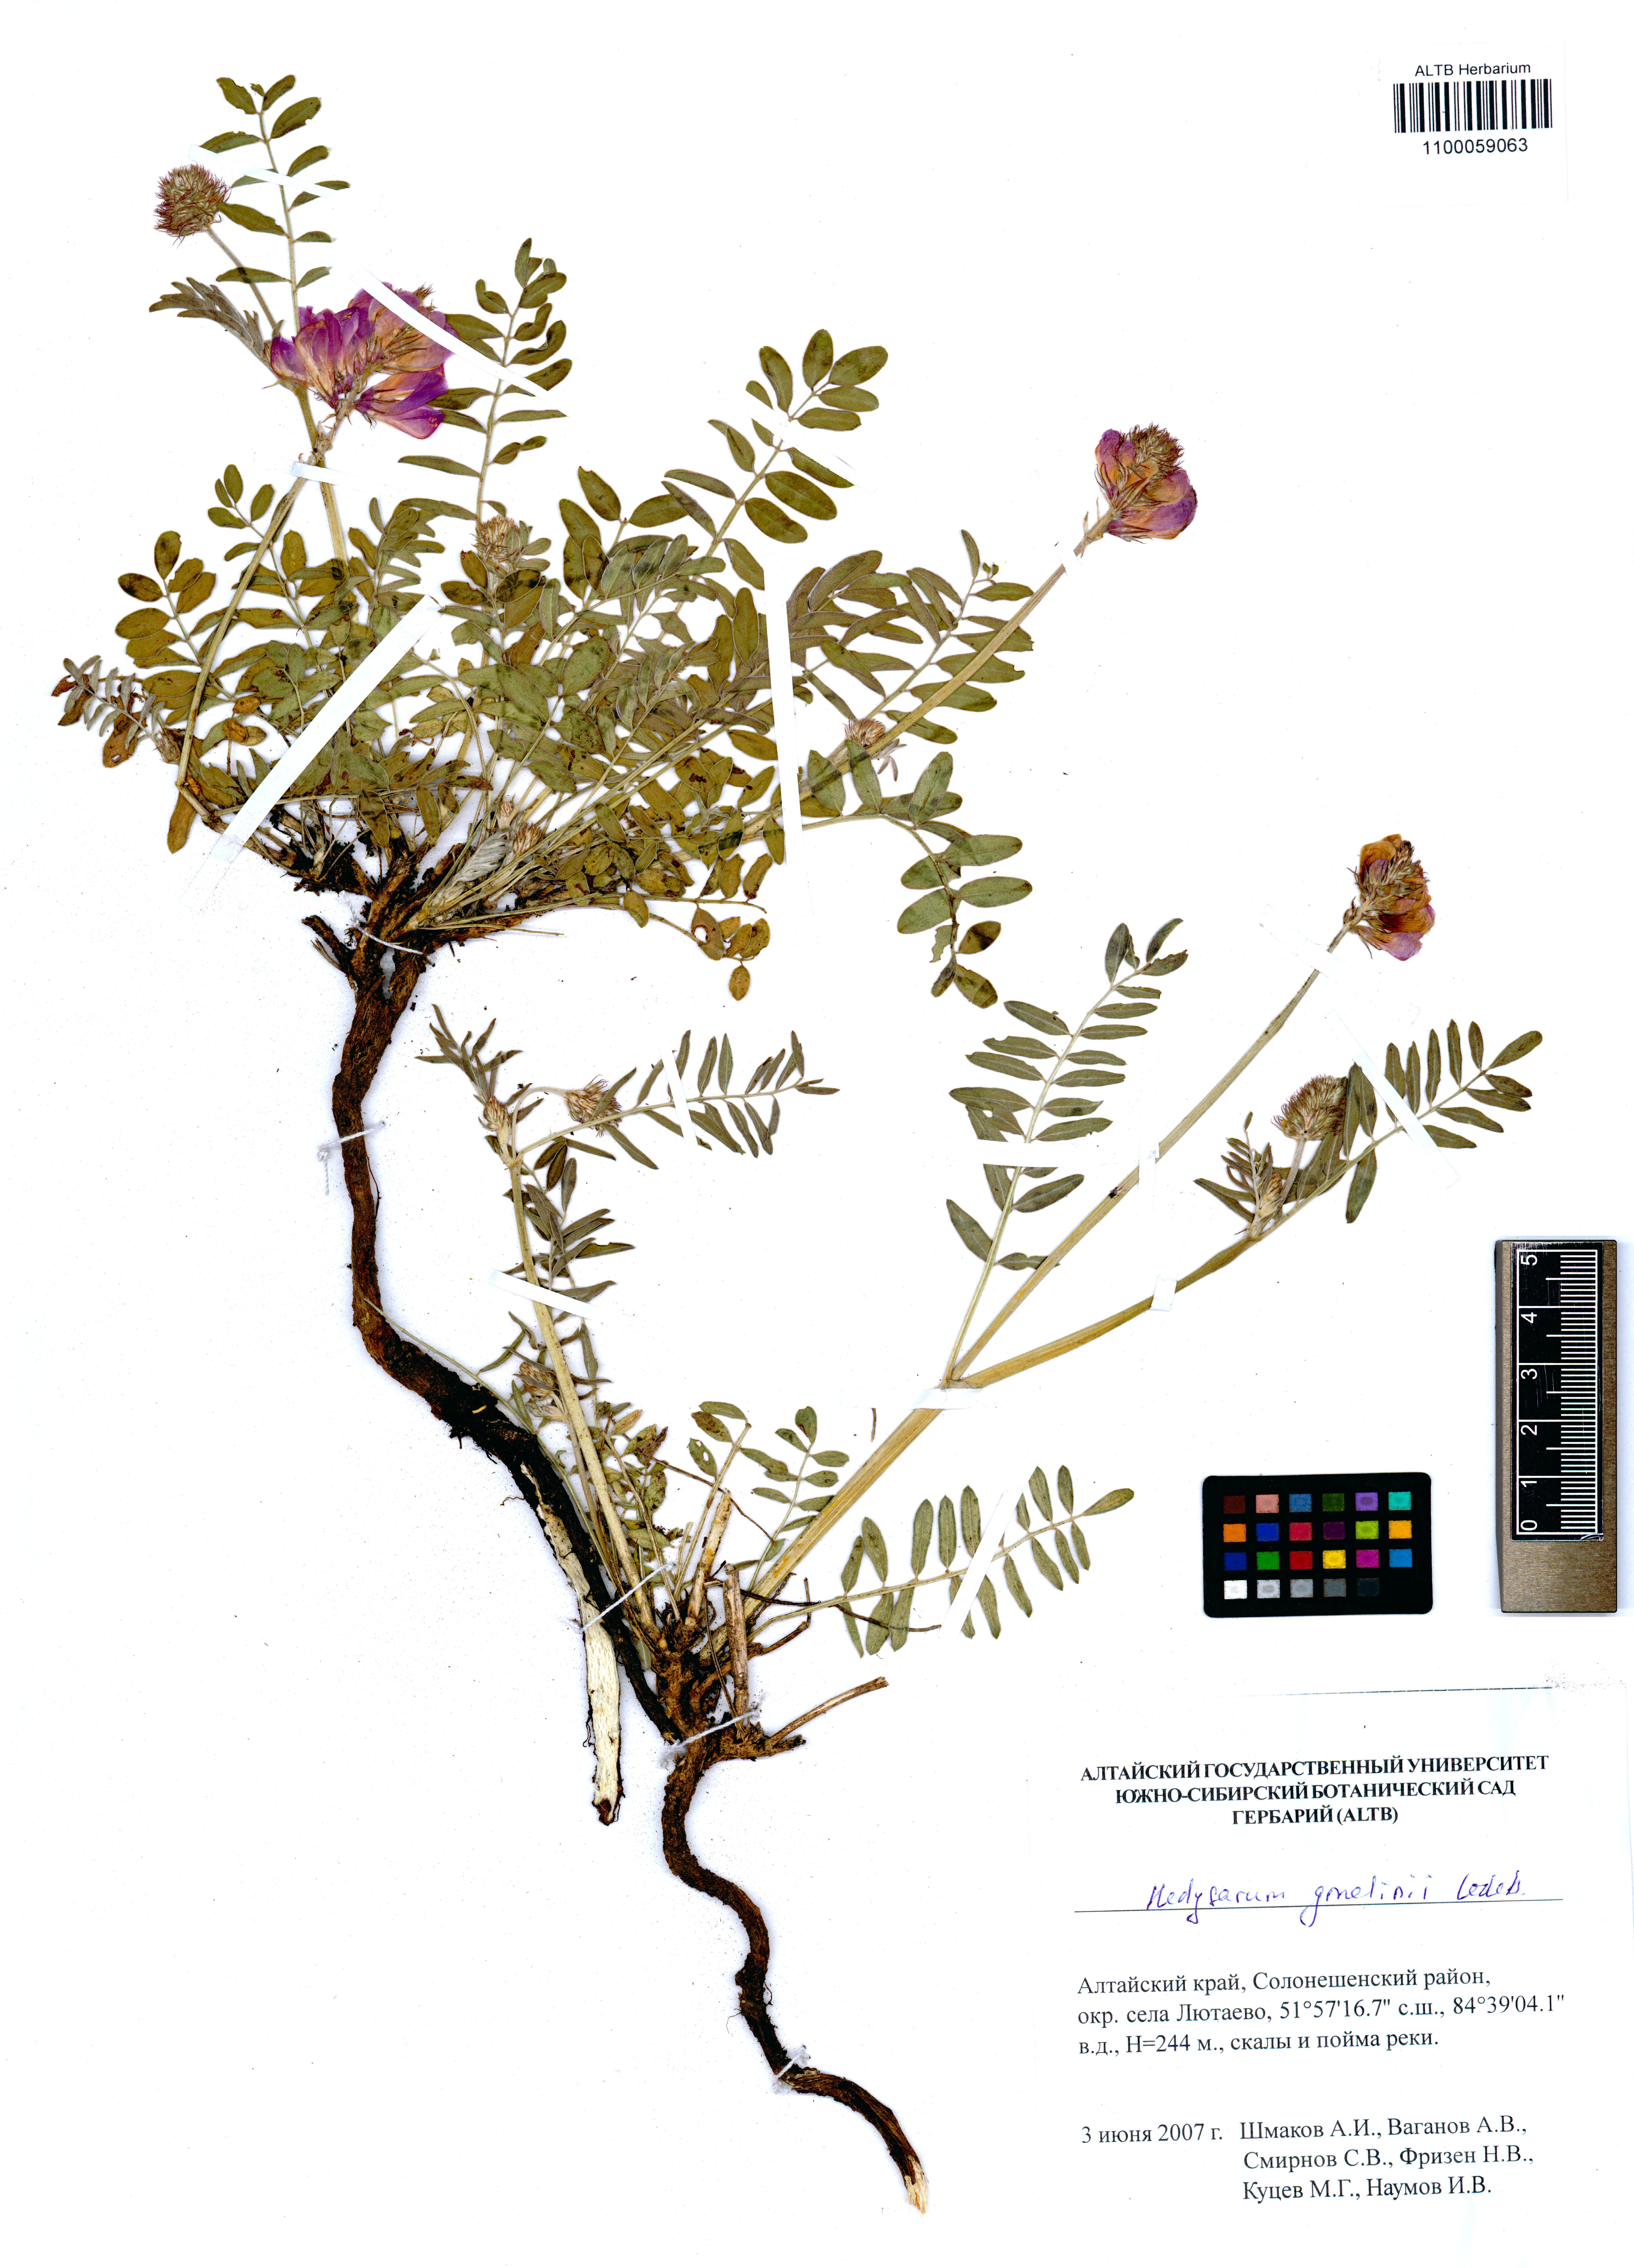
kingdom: Plantae
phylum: Tracheophyta
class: Magnoliopsida
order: Fabales
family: Fabaceae
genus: Hedysarum
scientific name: Hedysarum gmelinii
